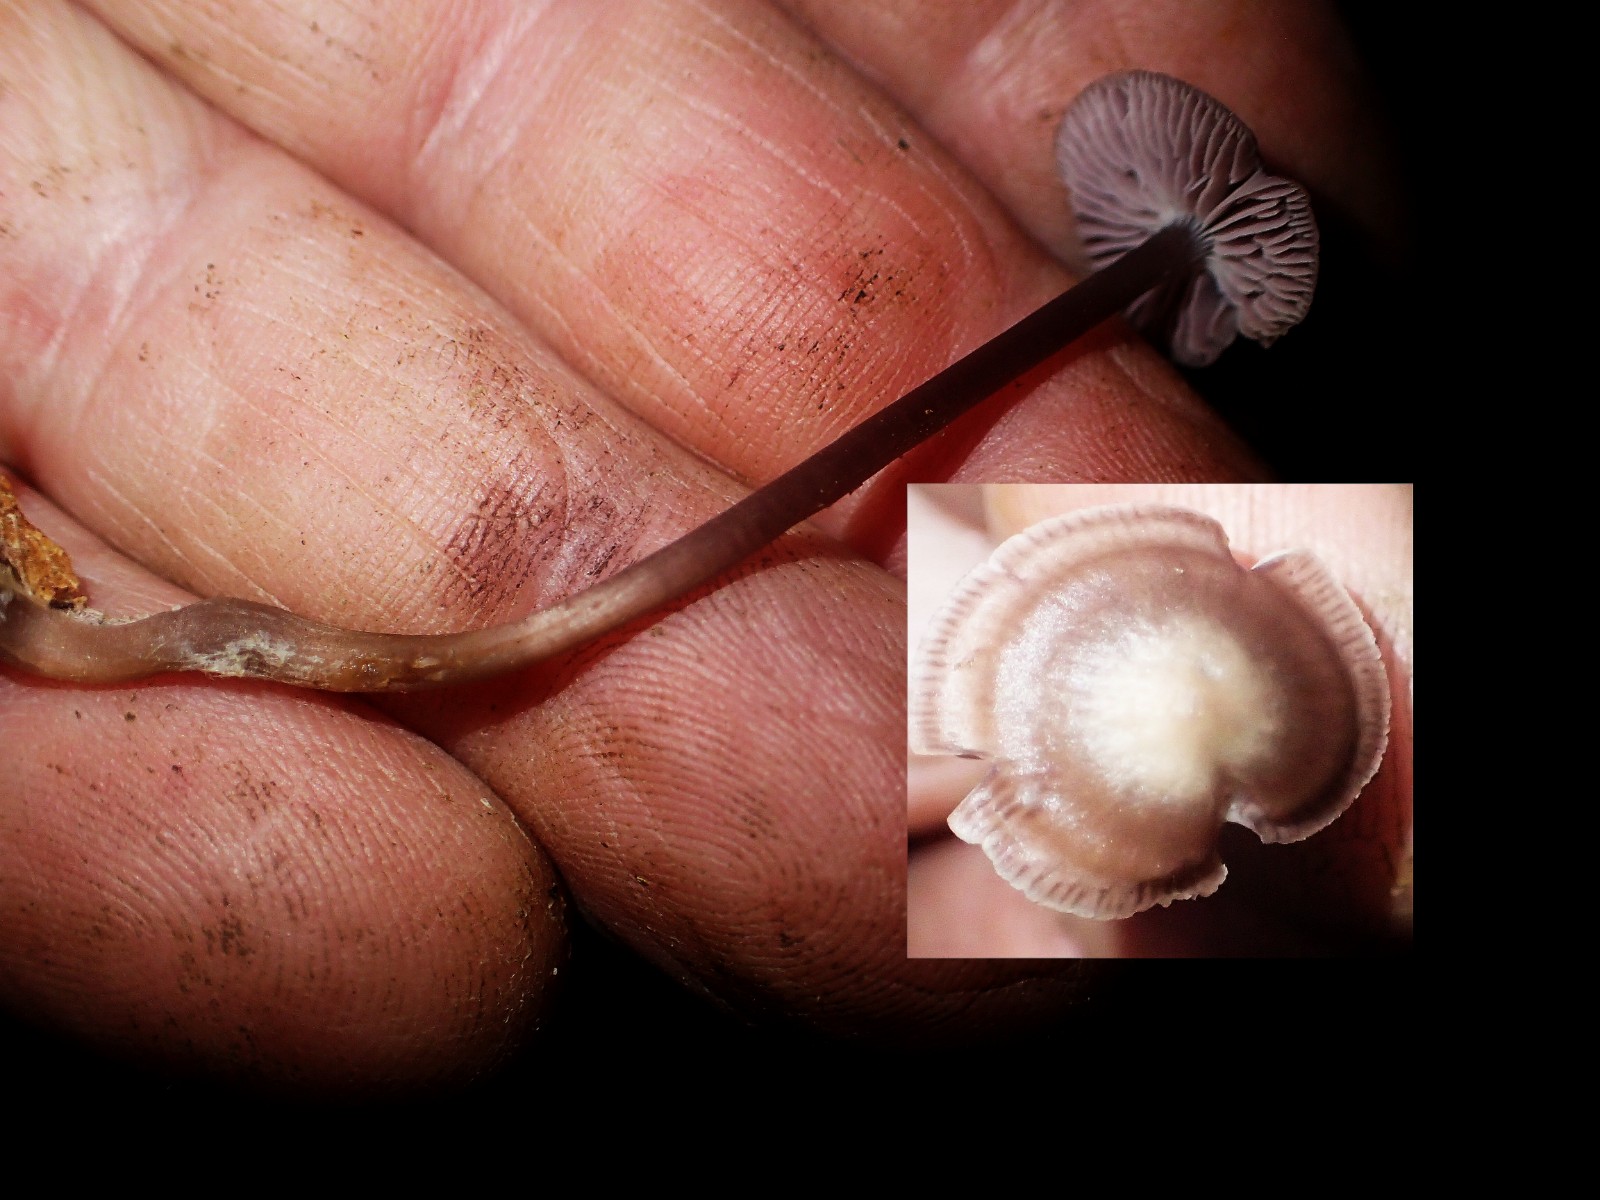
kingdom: Fungi
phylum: Basidiomycota
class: Agaricomycetes
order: Agaricales
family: Mycenaceae
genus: Prunulus
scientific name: Prunulus diosmus
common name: tobaks-huesvamp
